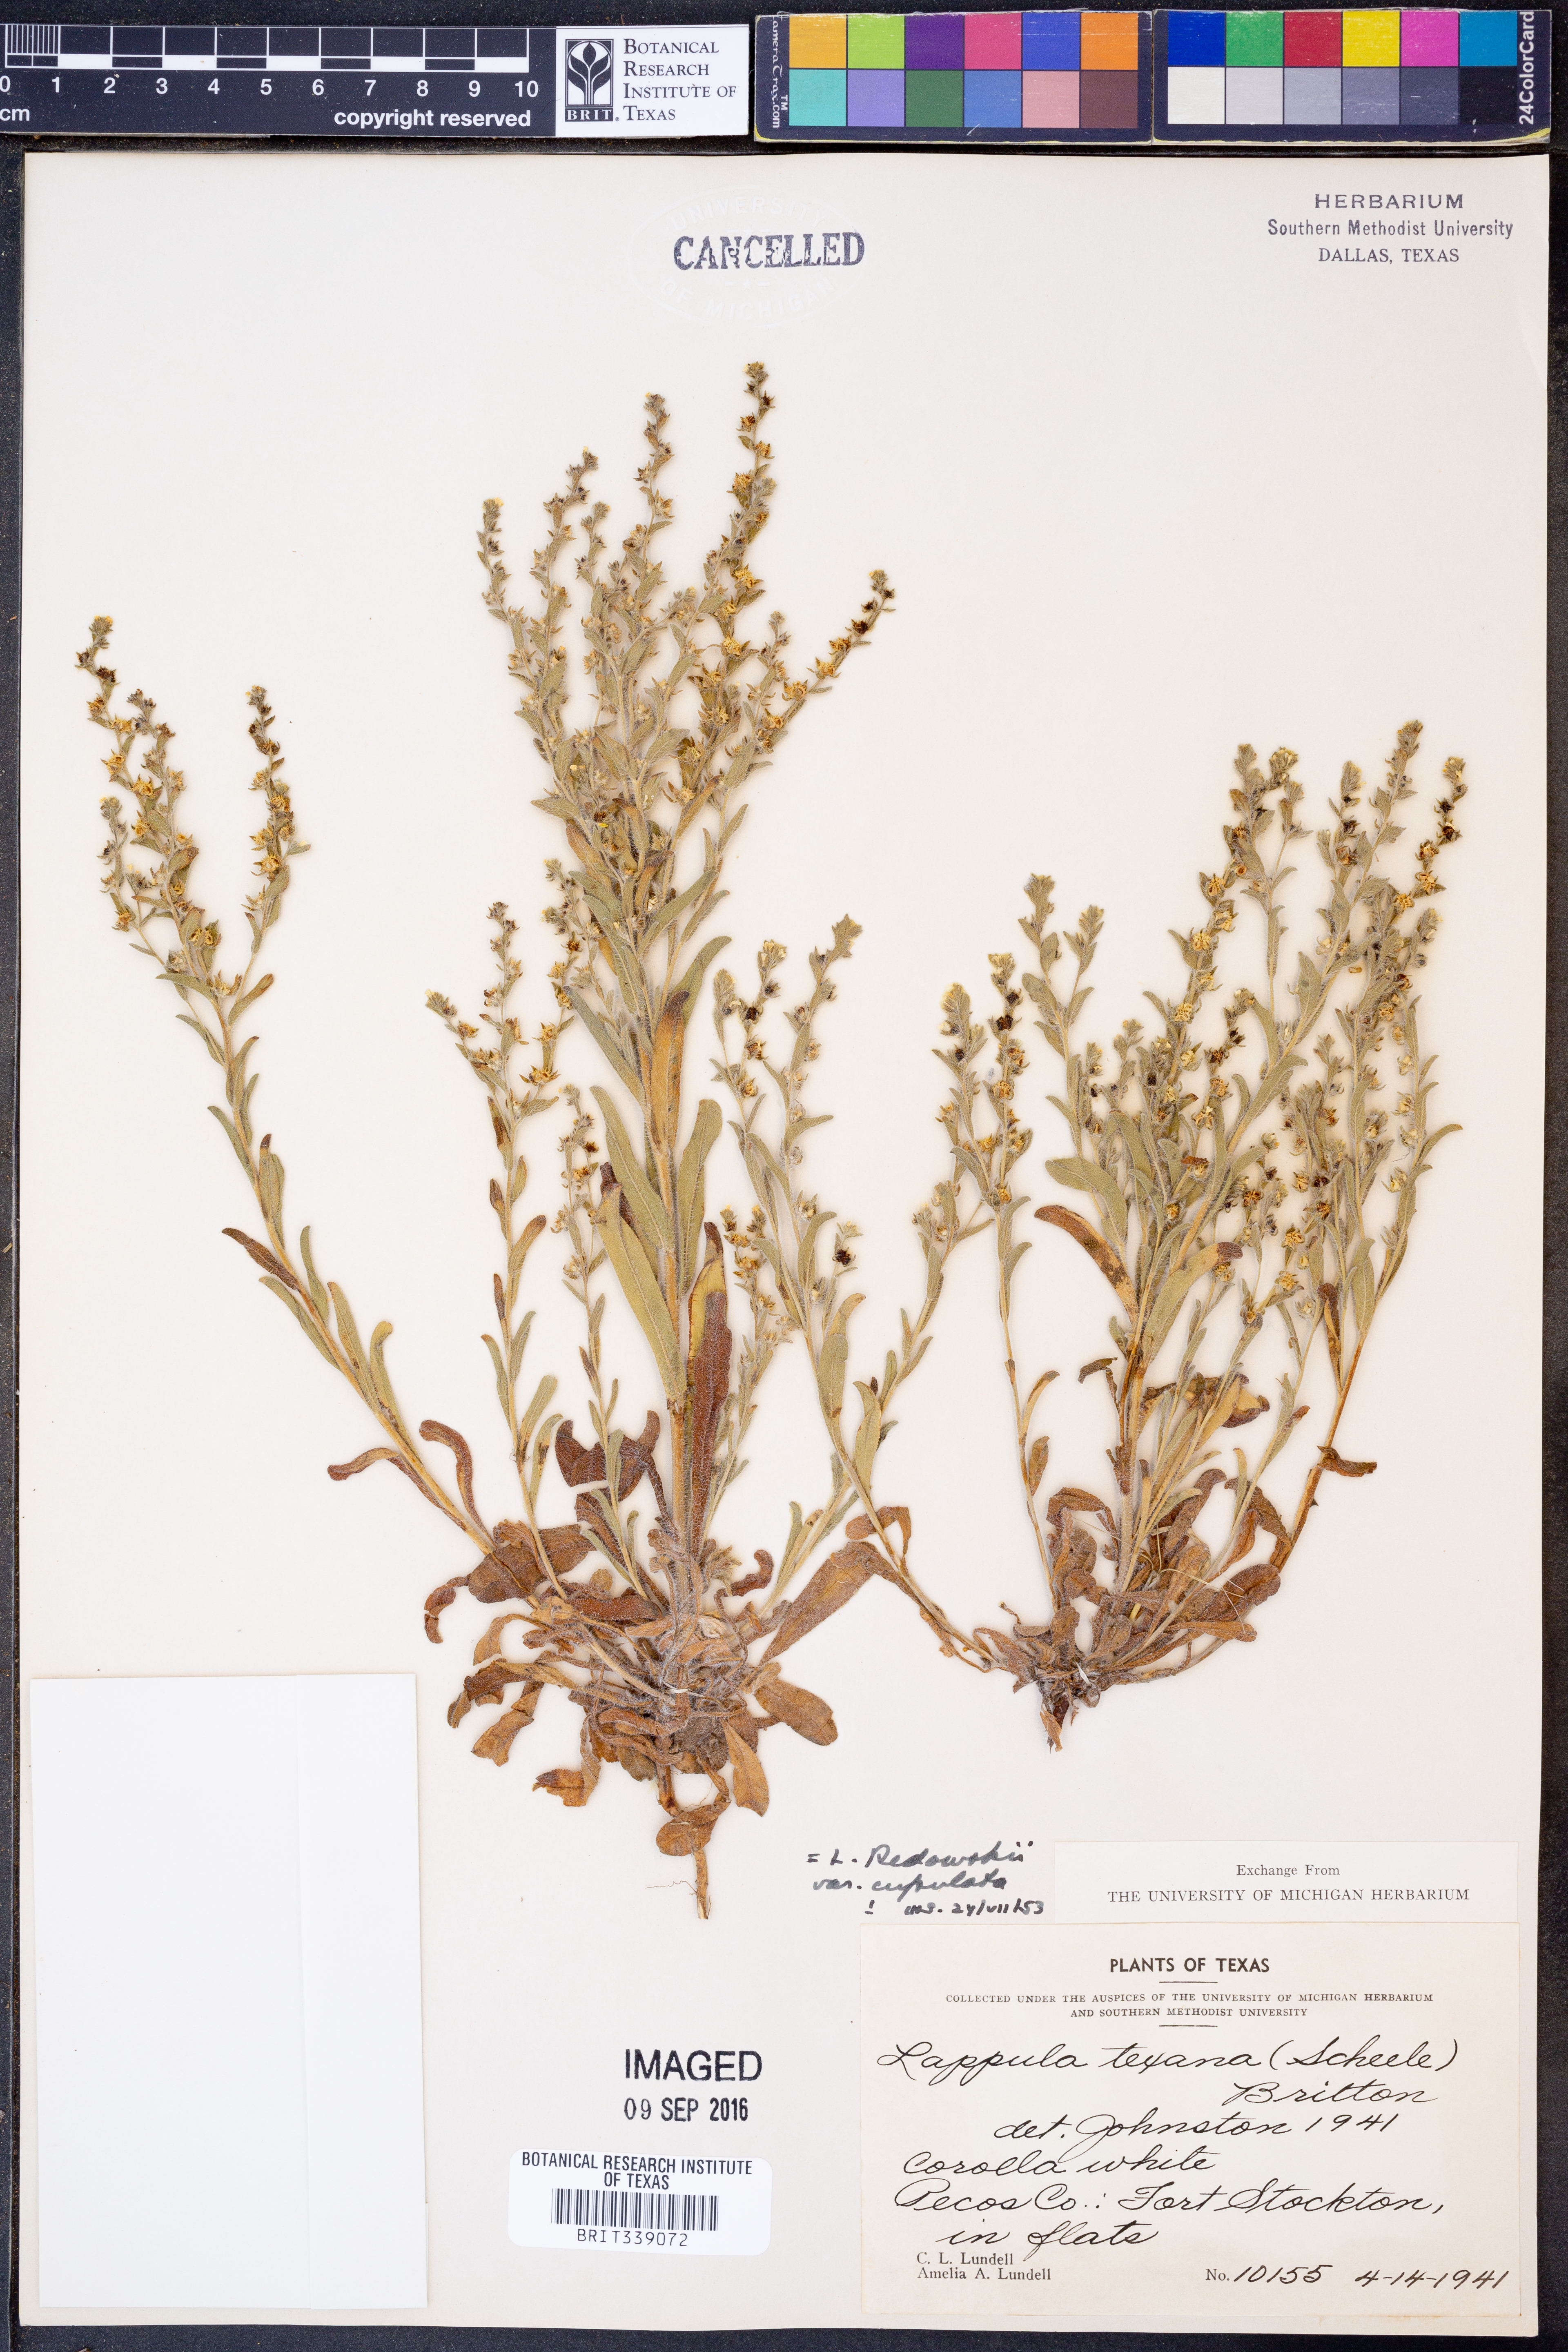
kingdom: Plantae
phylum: Tracheophyta
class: Magnoliopsida
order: Boraginales
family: Boraginaceae
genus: Lappula
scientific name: Lappula occidentalis
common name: Western stickseed
